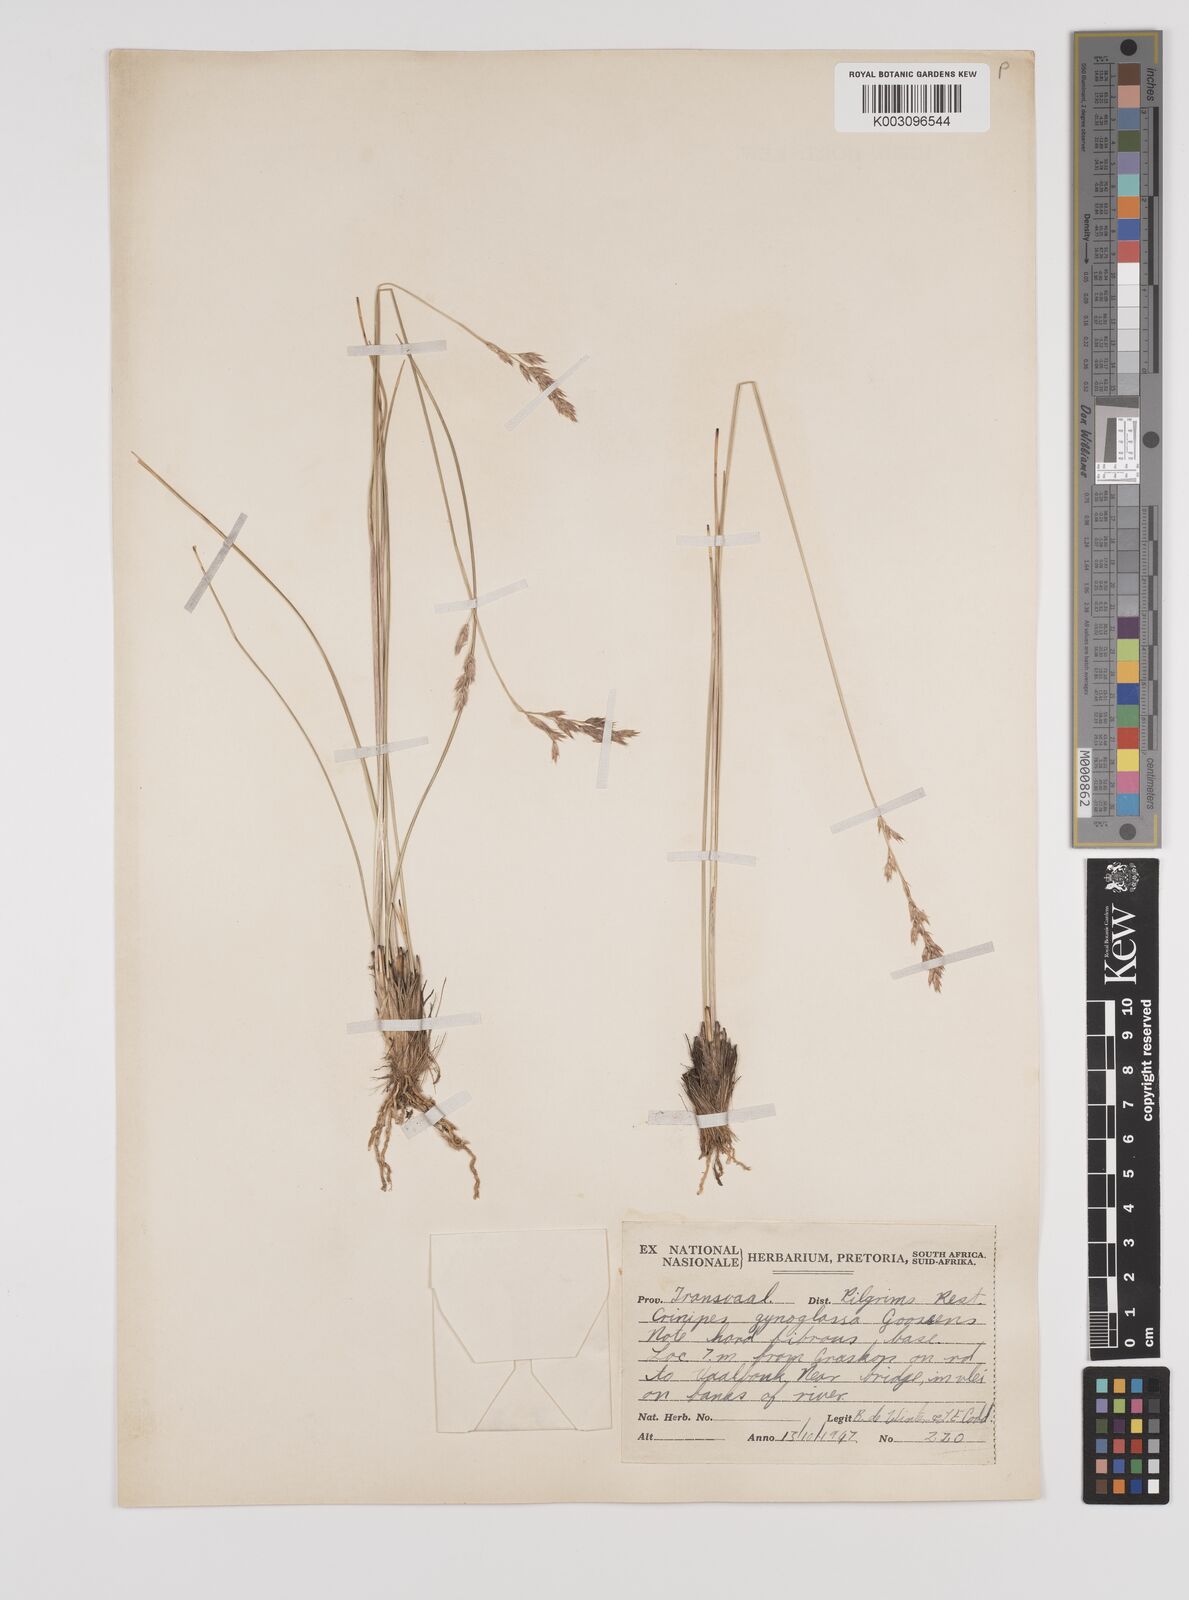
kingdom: Plantae
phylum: Tracheophyta
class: Liliopsida
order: Poales
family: Poaceae
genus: Styppeiochloa
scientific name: Styppeiochloa gynoglossa
